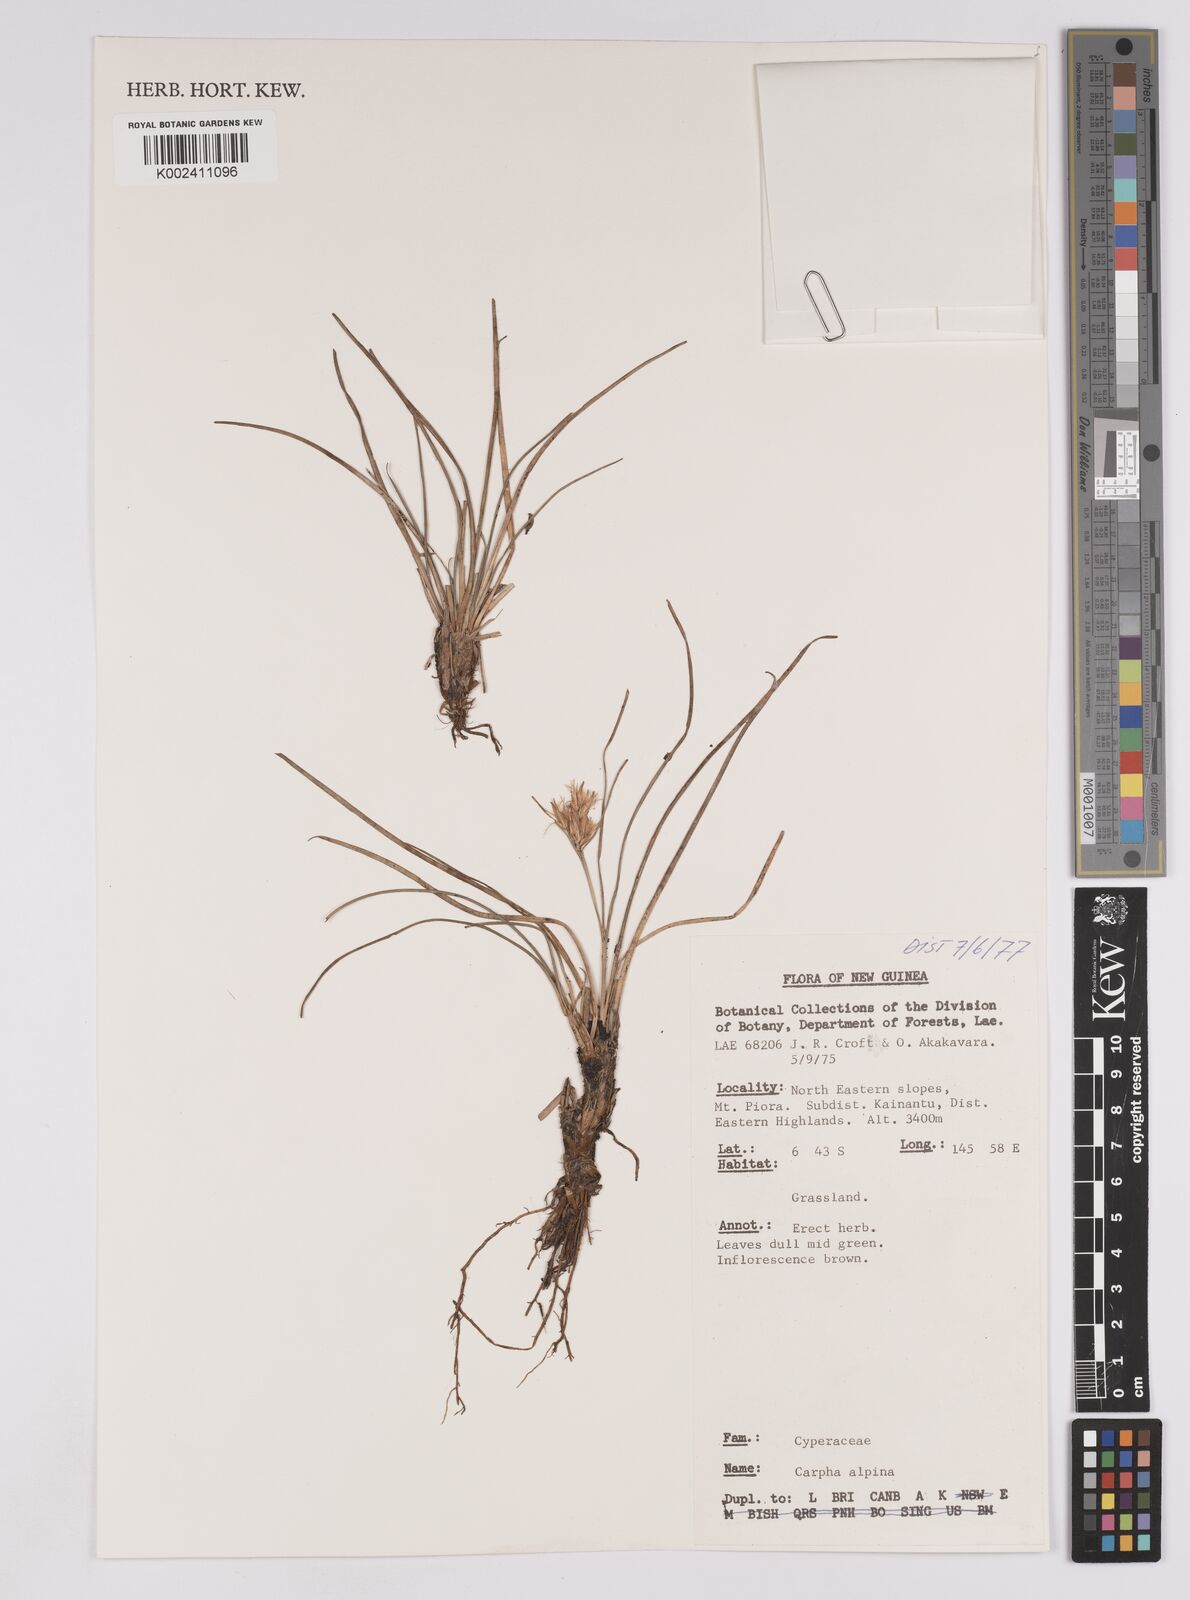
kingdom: Plantae
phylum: Tracheophyta
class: Liliopsida
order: Poales
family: Cyperaceae
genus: Carpha
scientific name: Carpha alpina
